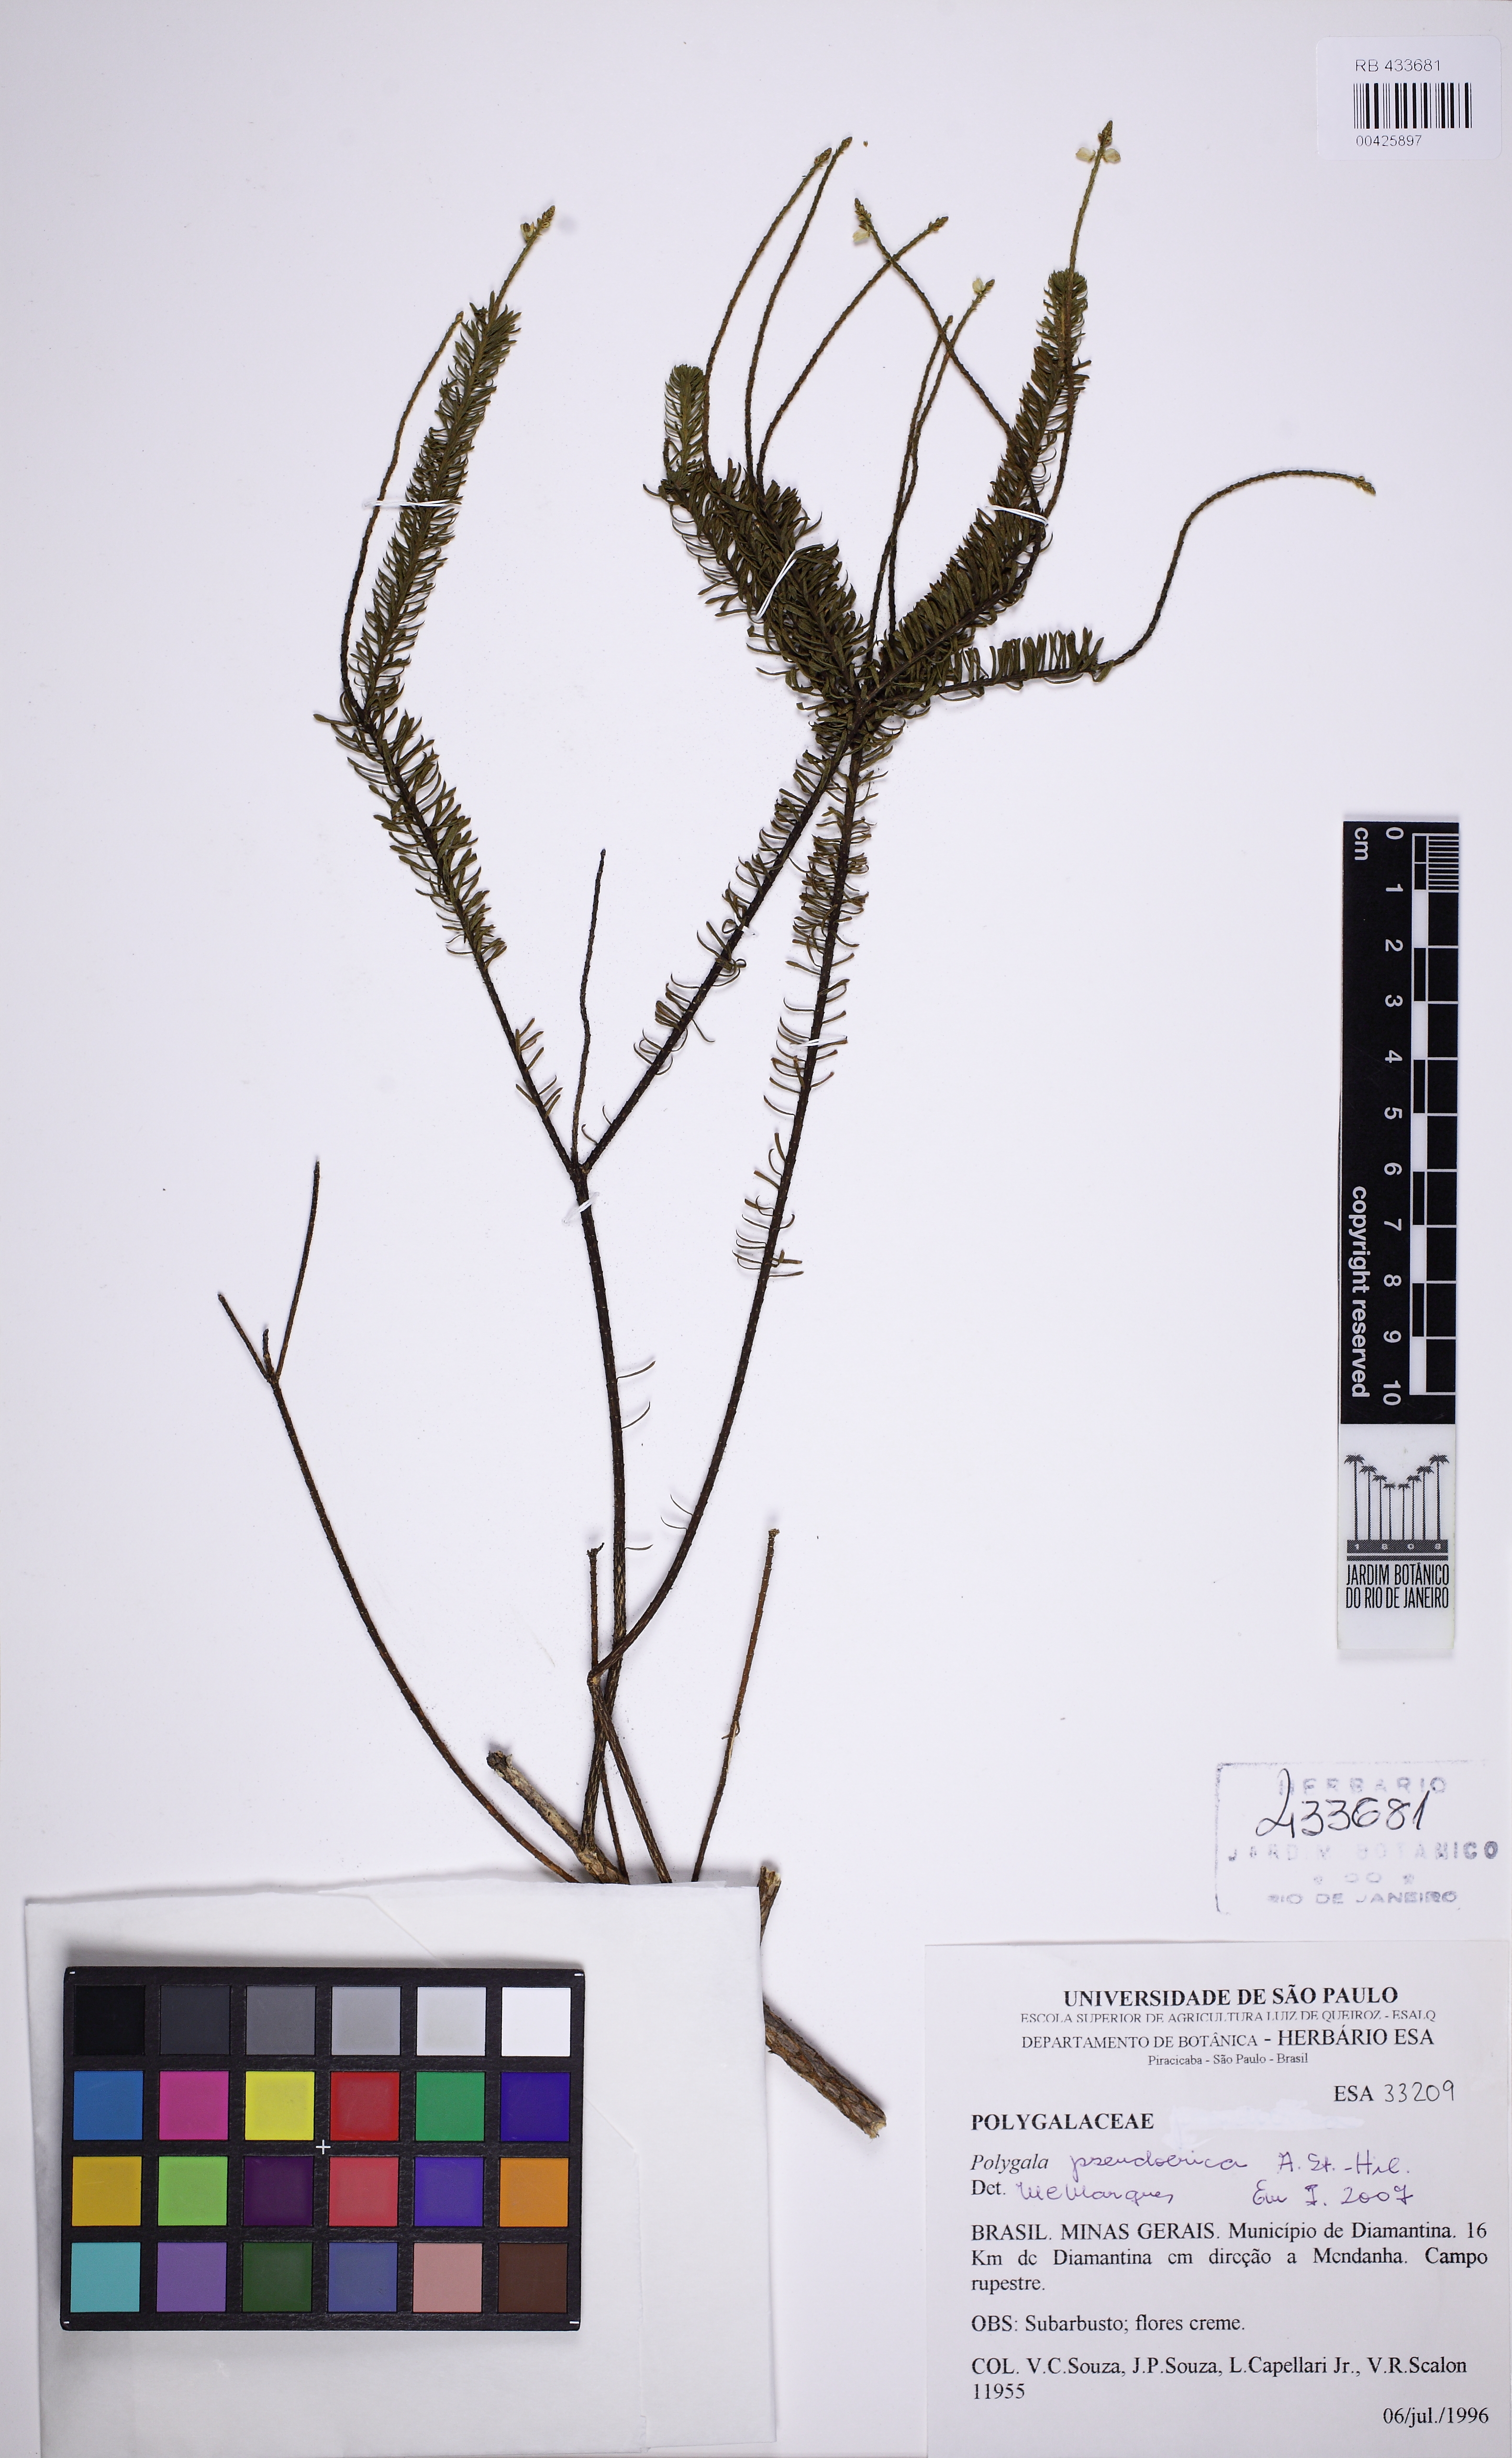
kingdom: Plantae
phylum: Tracheophyta
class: Magnoliopsida
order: Fabales
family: Polygalaceae
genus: Polygala
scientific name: Polygala pseudoerica
